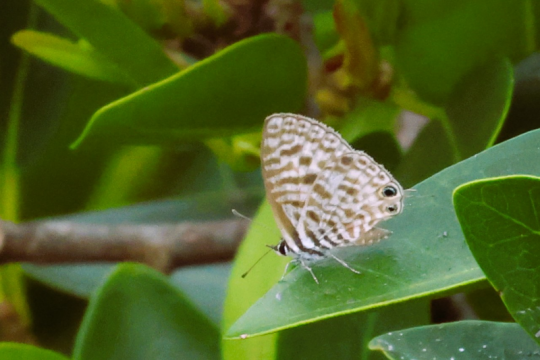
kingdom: Animalia
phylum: Arthropoda
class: Insecta
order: Lepidoptera
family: Lycaenidae
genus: Leptotes
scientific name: Leptotes pirithous
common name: Lang's Short-tailed Blue
